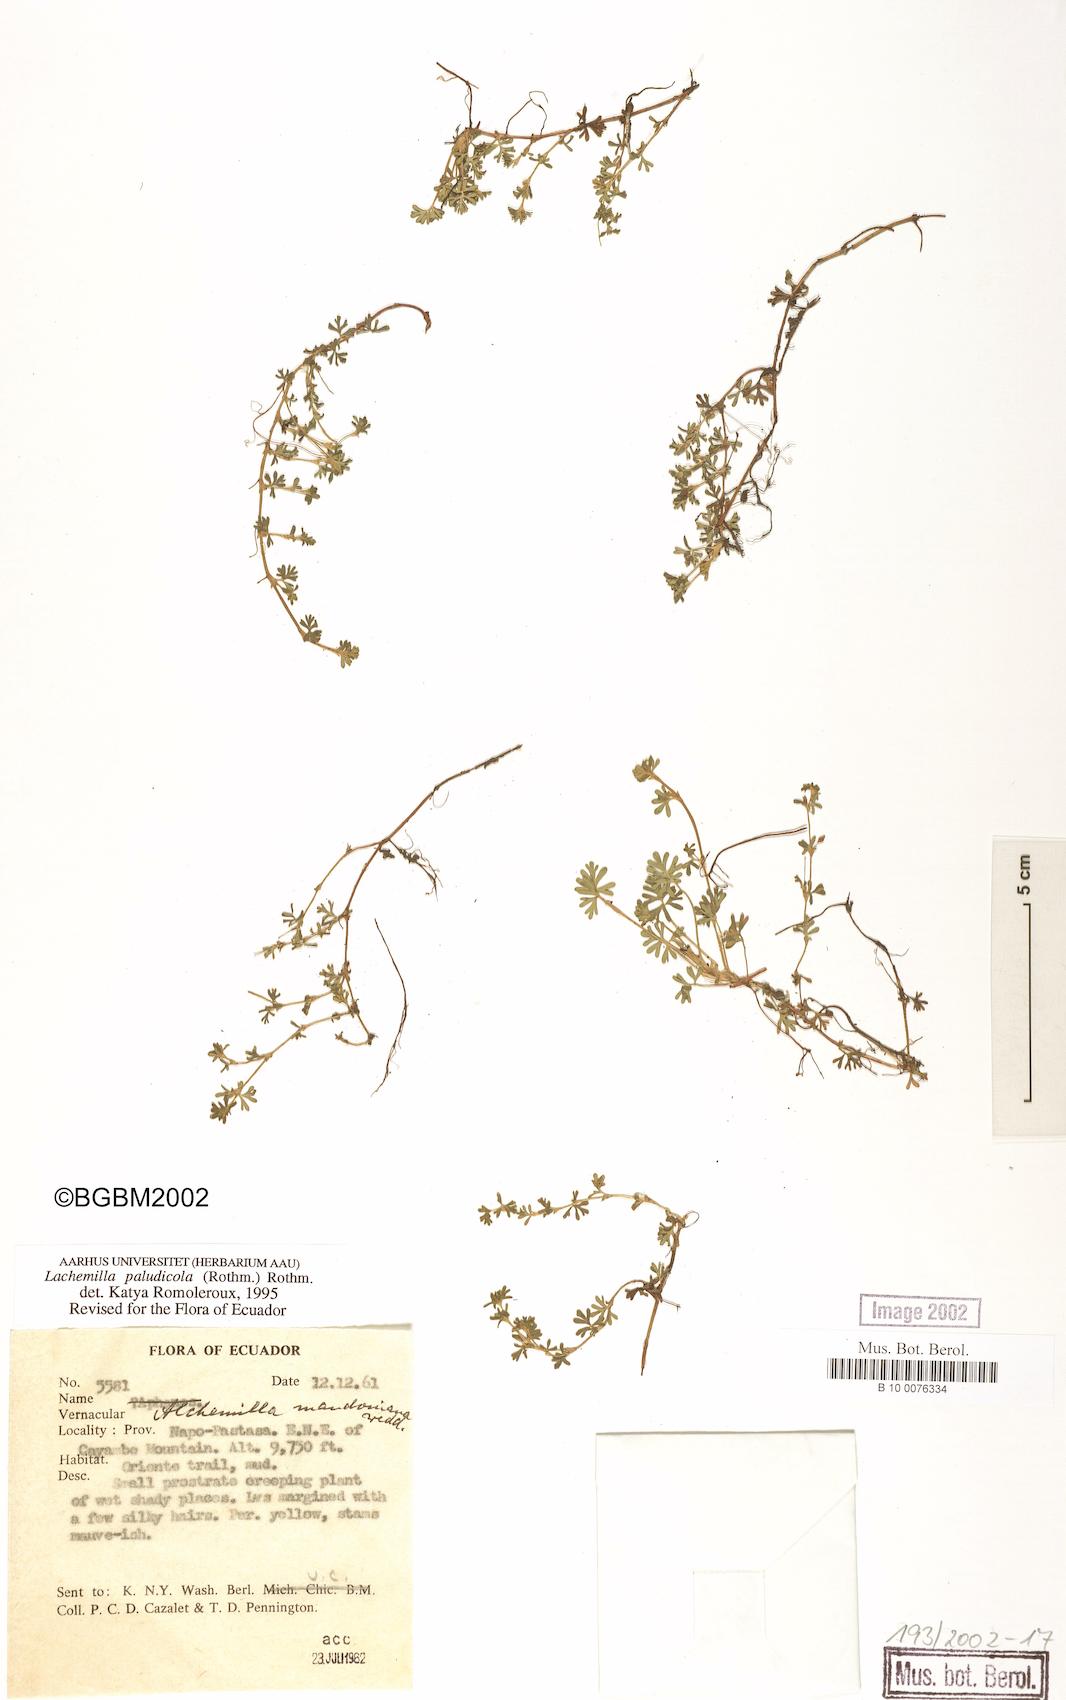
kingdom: Plantae
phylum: Tracheophyta
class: Magnoliopsida
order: Rosales
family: Rosaceae
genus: Lachemilla
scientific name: Lachemilla mandoniana
